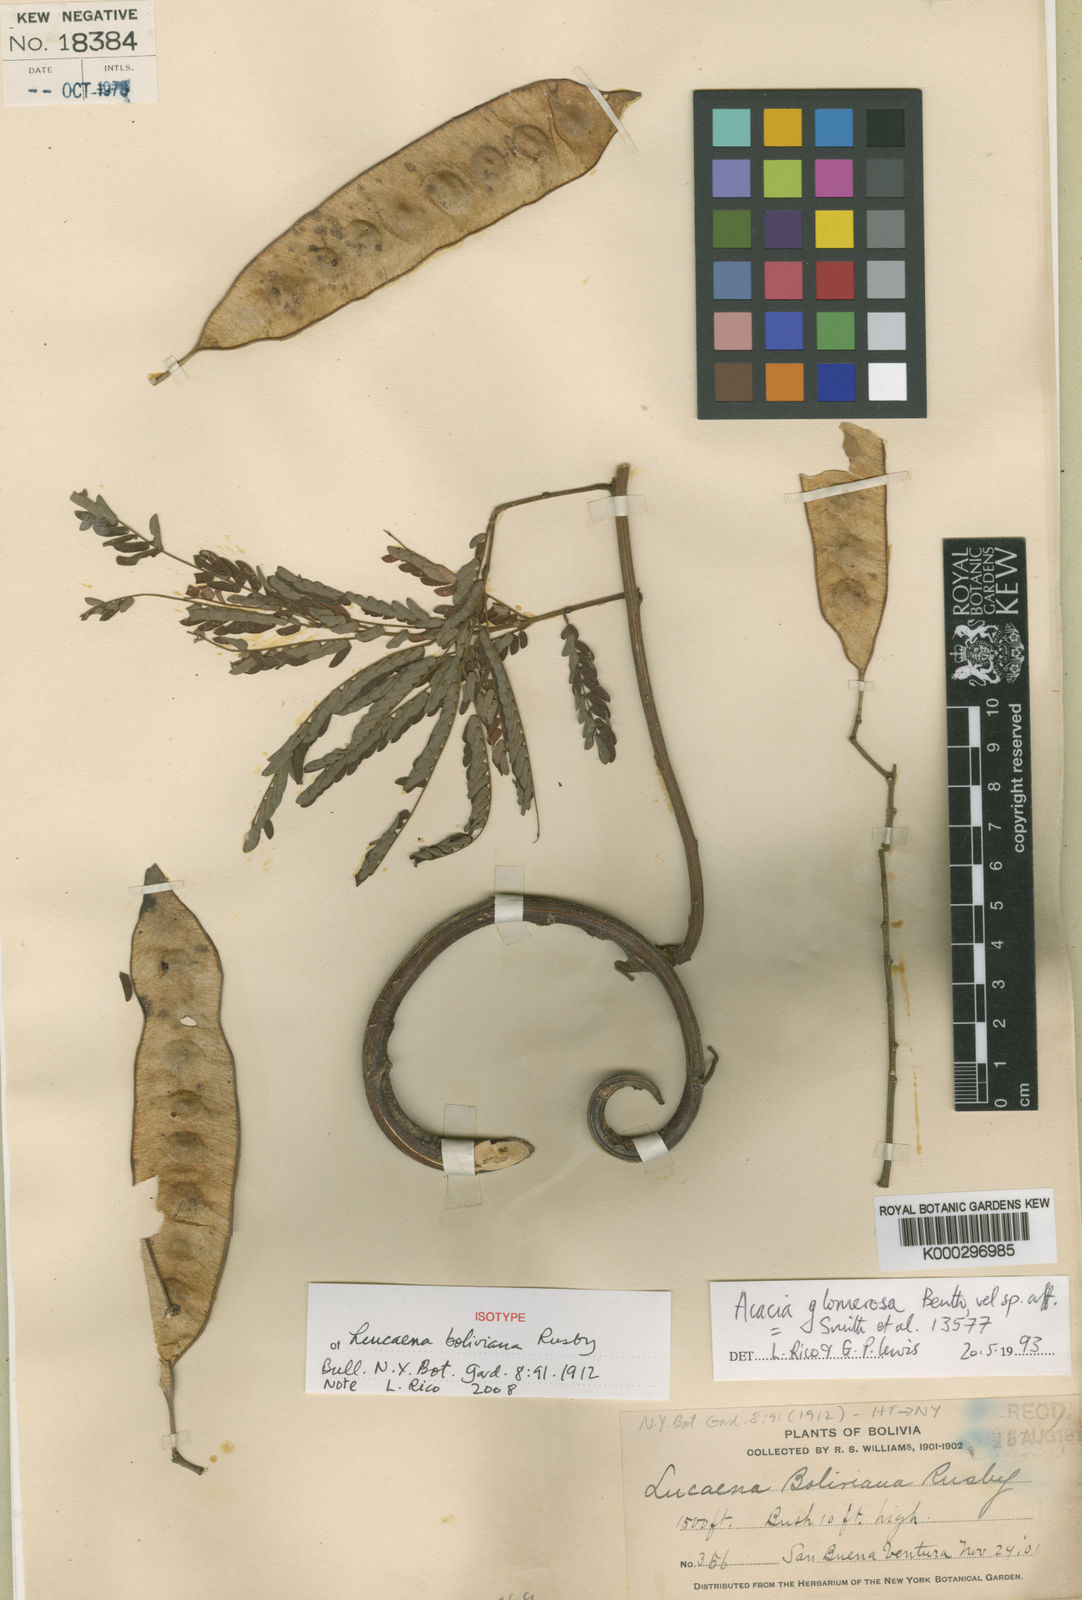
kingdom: Plantae
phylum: Tracheophyta
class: Magnoliopsida
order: Fabales
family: Fabaceae
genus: Senegalia
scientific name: Senegalia polyphylla
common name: White-tamarind
